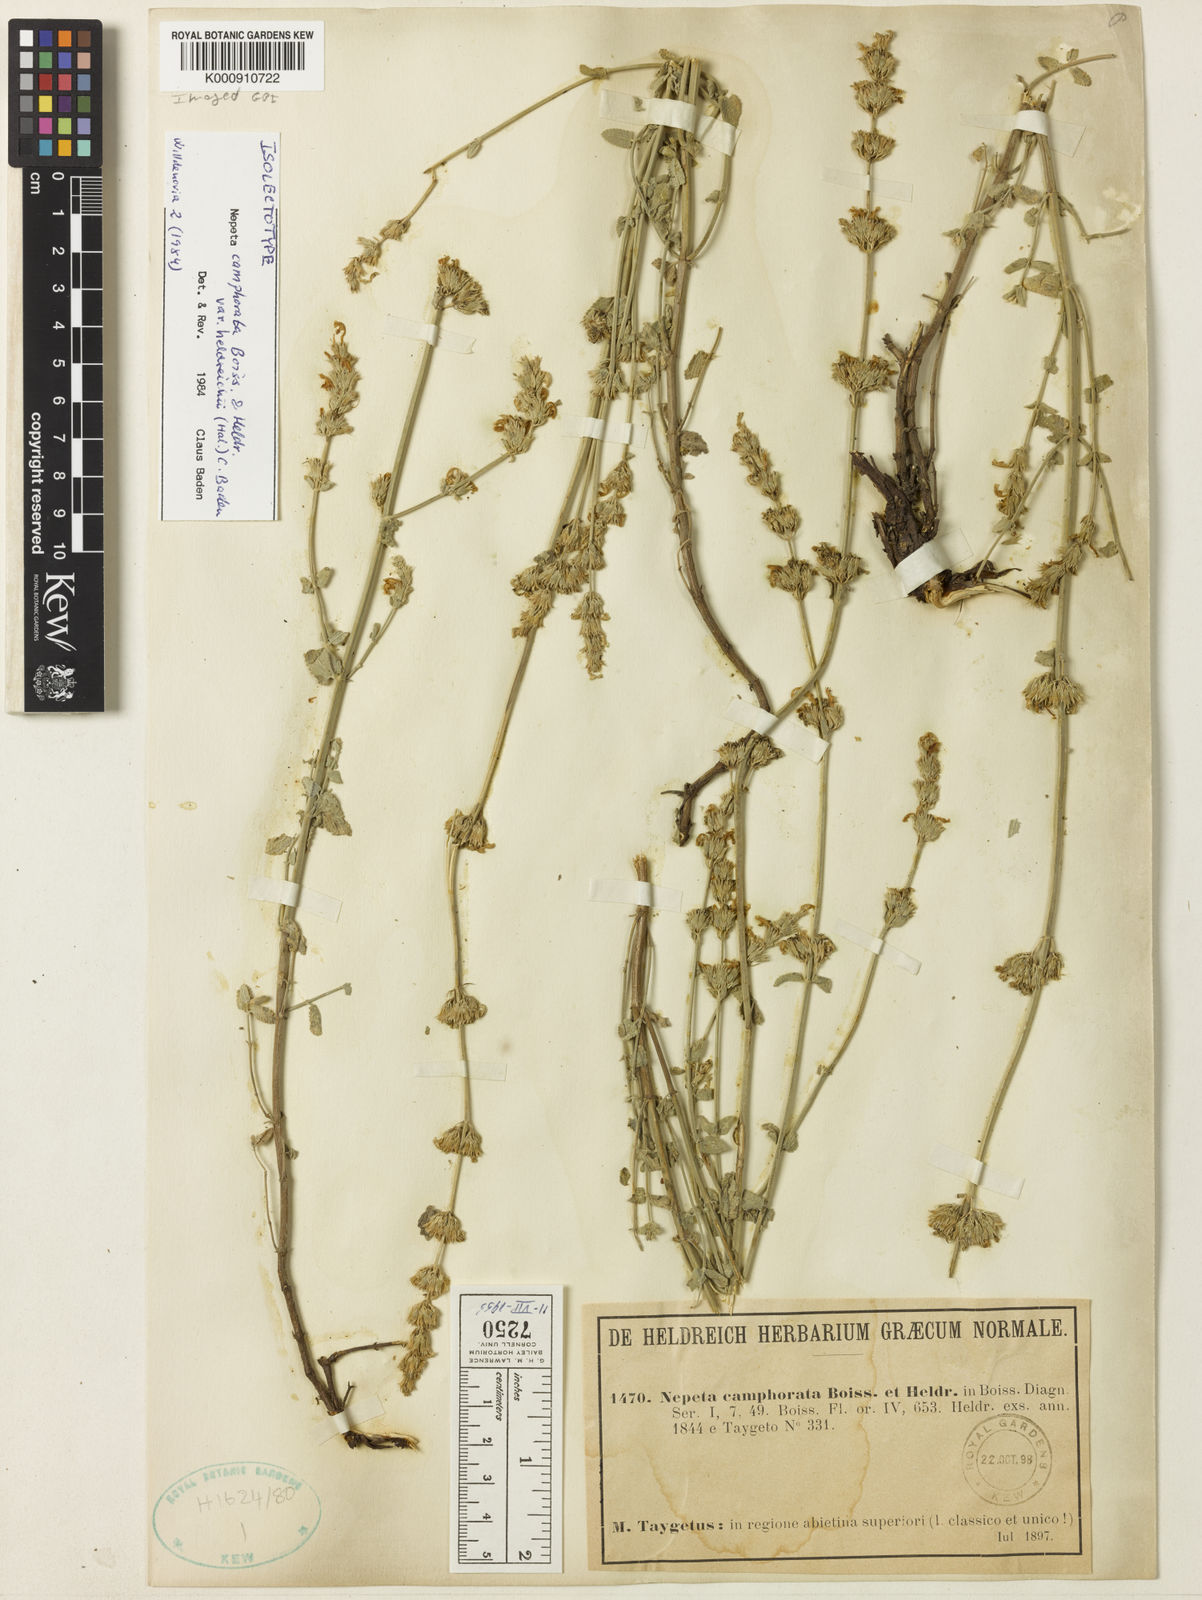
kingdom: Plantae
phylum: Tracheophyta
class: Magnoliopsida
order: Lamiales
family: Lamiaceae
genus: Nepeta
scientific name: Nepeta camphorata
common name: Camphor catmint
